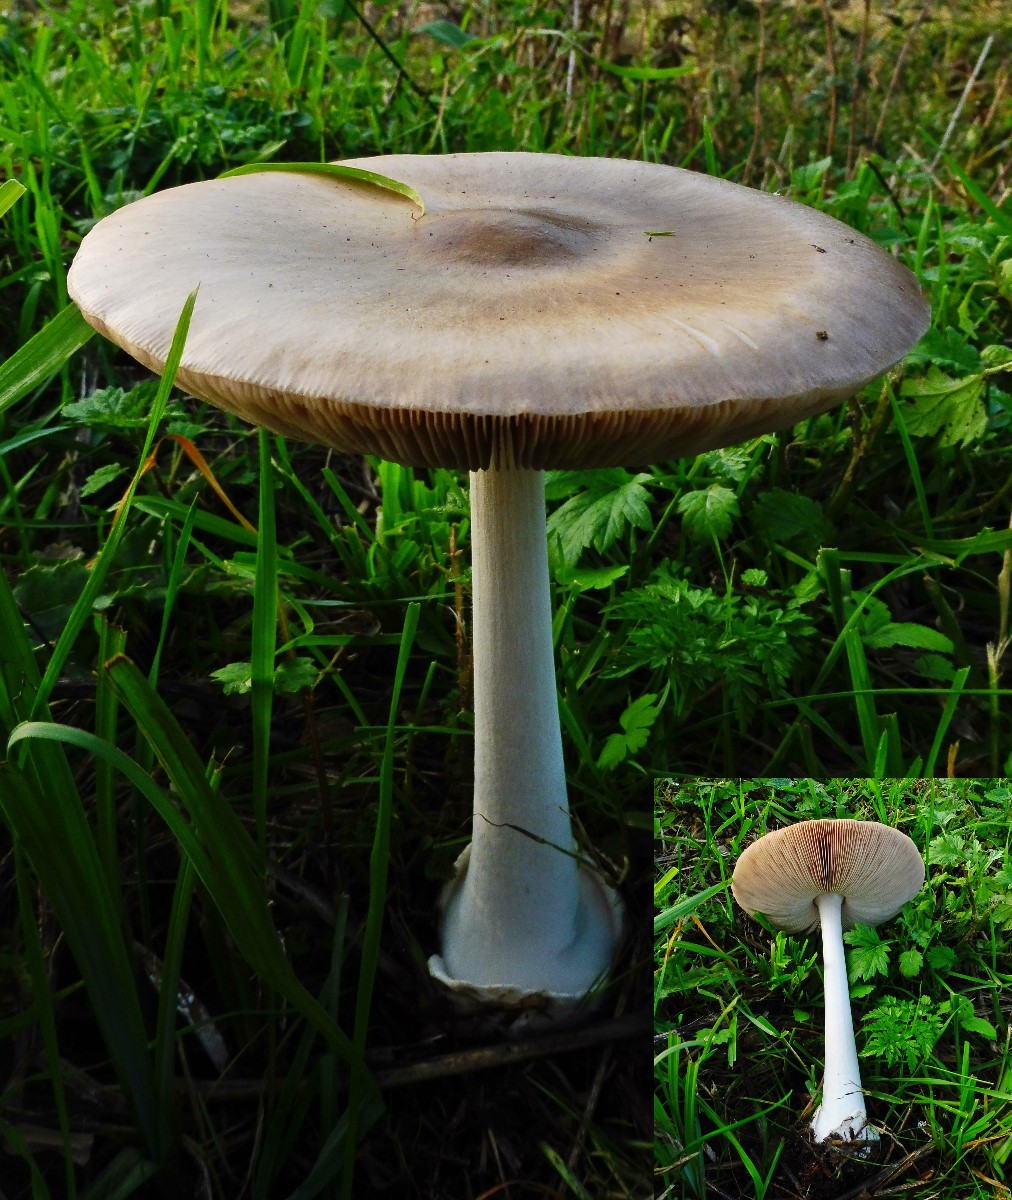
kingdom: Fungi
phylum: Basidiomycota
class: Agaricomycetes
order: Agaricales
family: Pluteaceae
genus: Volvopluteus
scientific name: Volvopluteus gloiocephalus
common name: høj posesvamp
